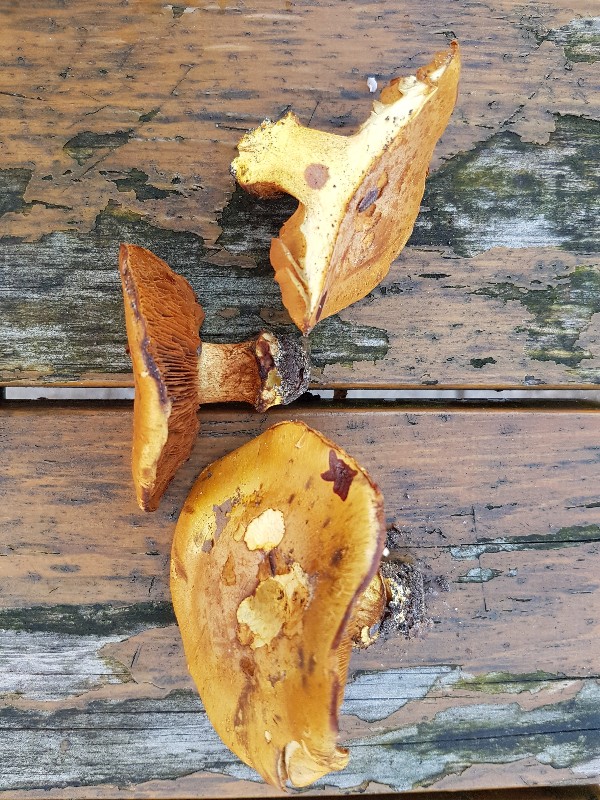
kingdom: Fungi
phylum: Basidiomycota
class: Agaricomycetes
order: Agaricales
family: Cortinariaceae
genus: Calonarius
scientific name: Calonarius olearioides
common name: safran-slørhat
